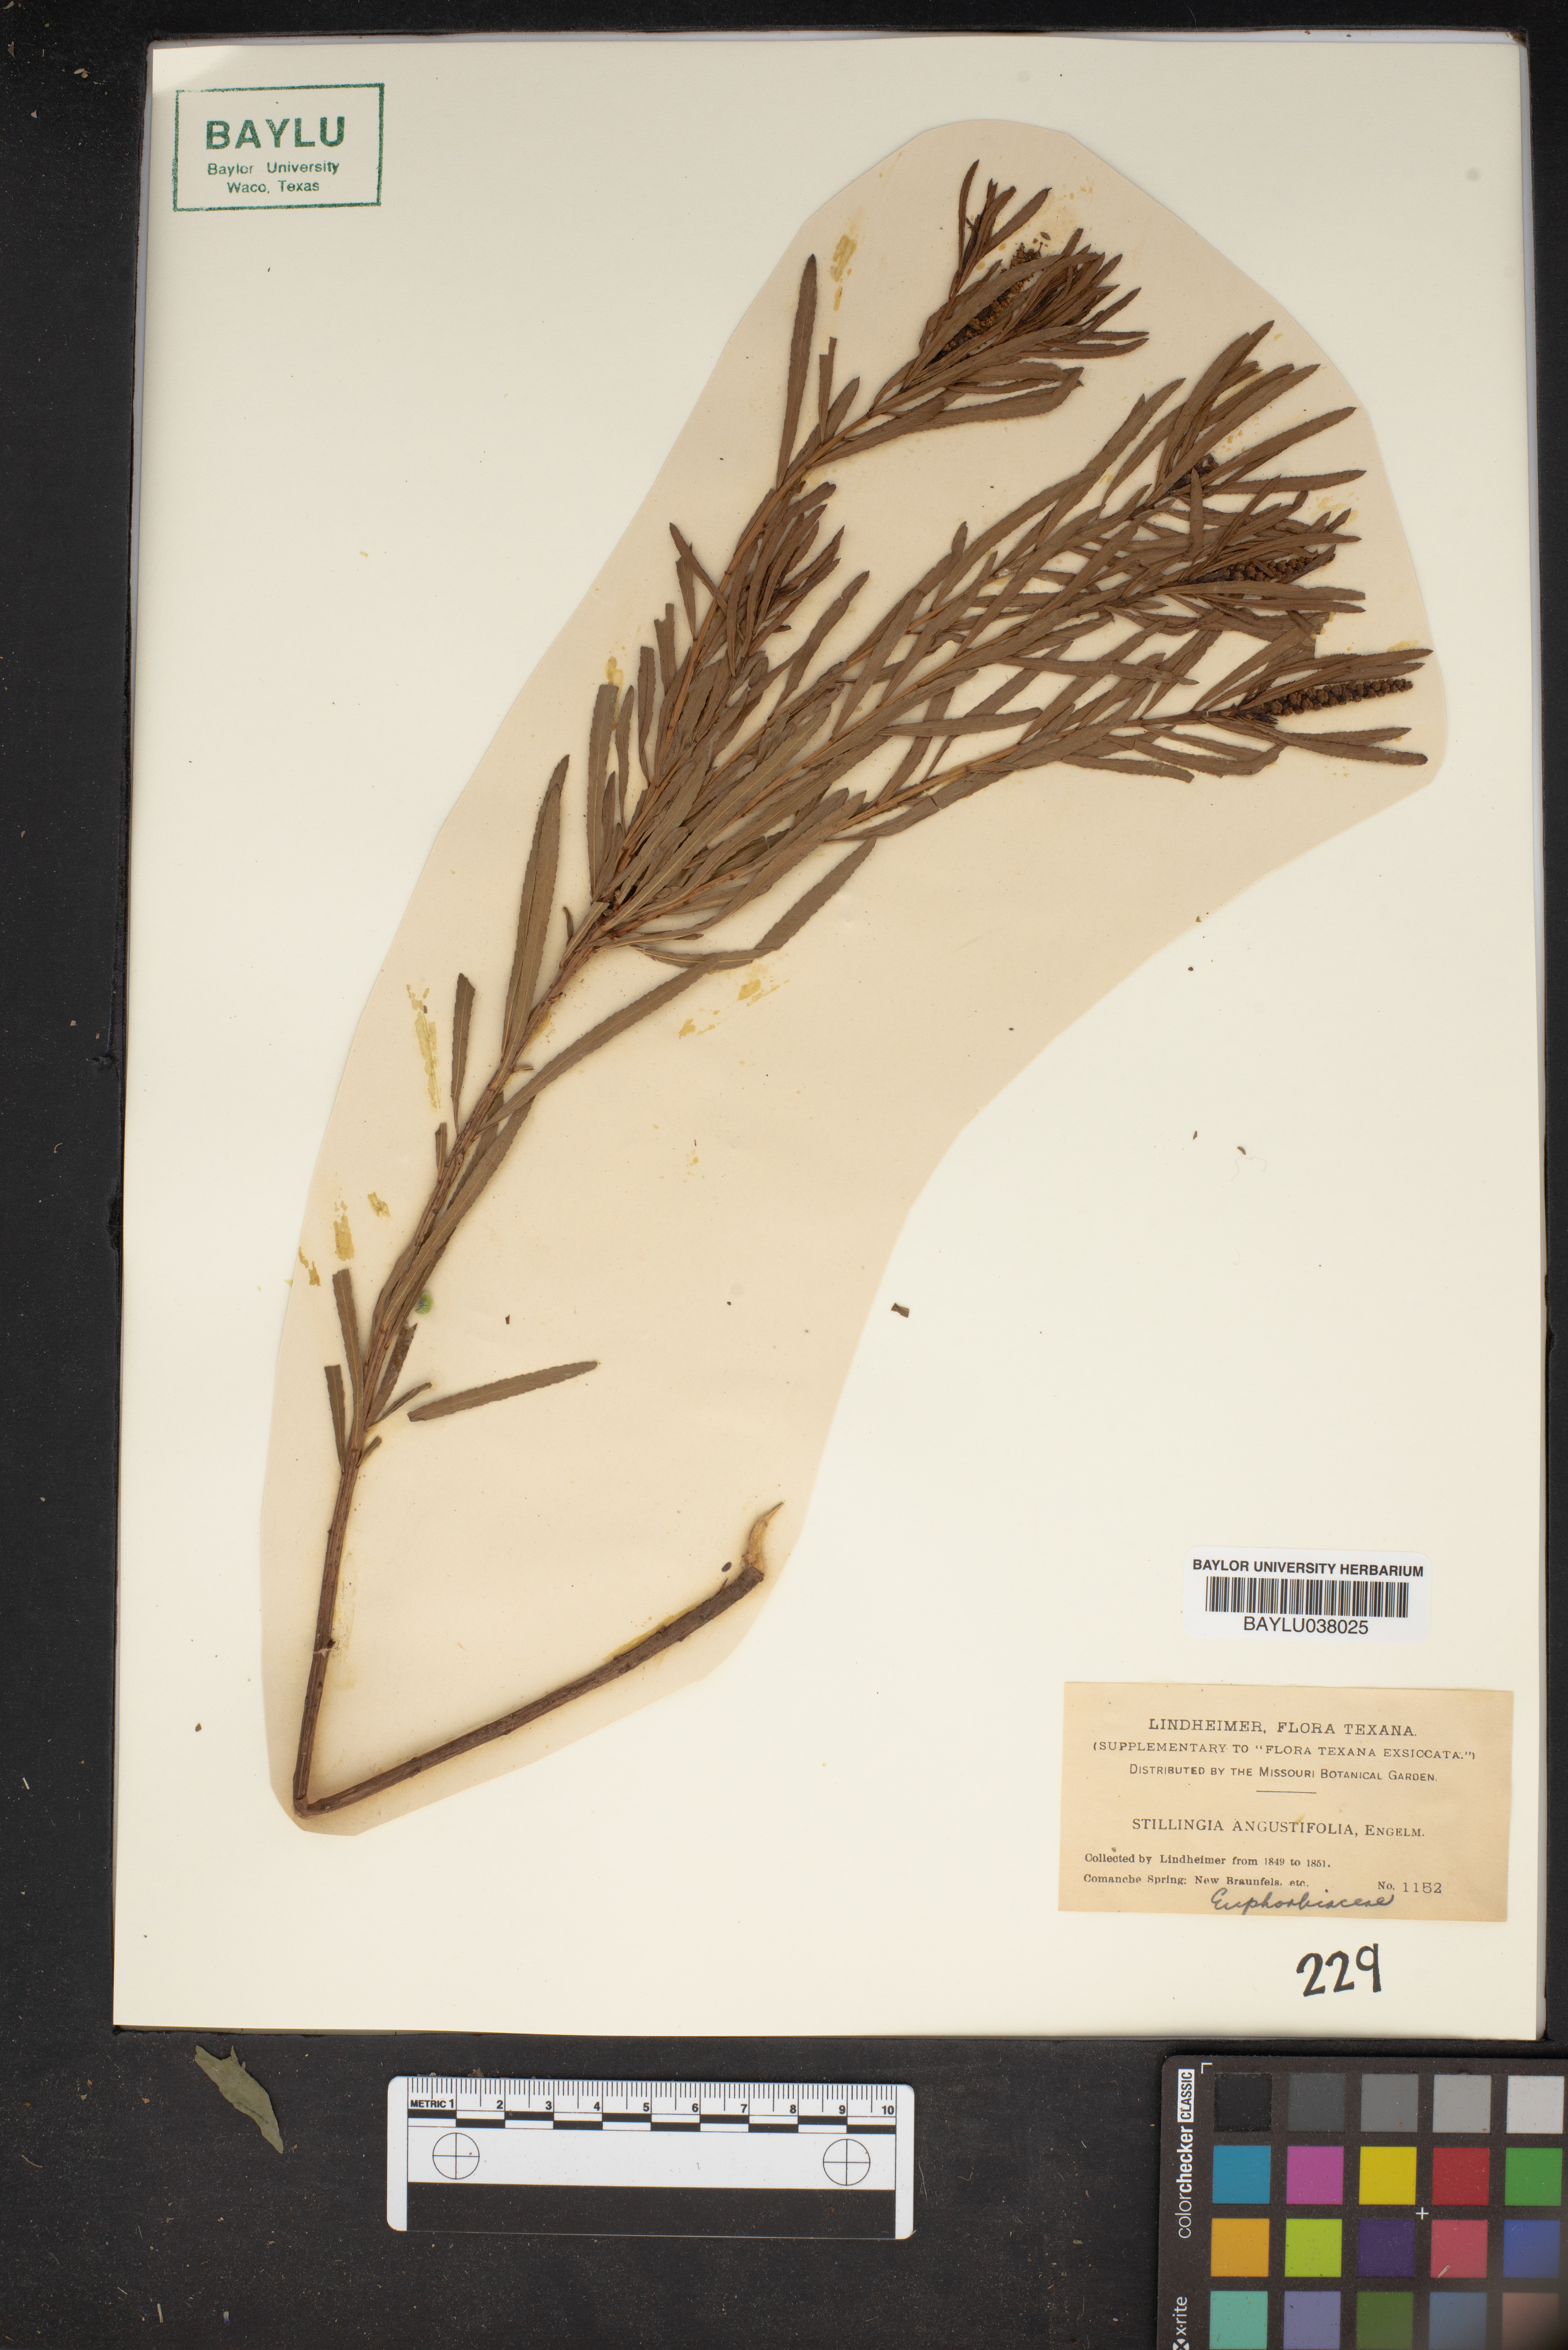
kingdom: Plantae
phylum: Tracheophyta
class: Magnoliopsida
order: Malpighiales
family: Euphorbiaceae
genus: Stillingia
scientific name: Stillingia sylvatica
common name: Queen's-delight
